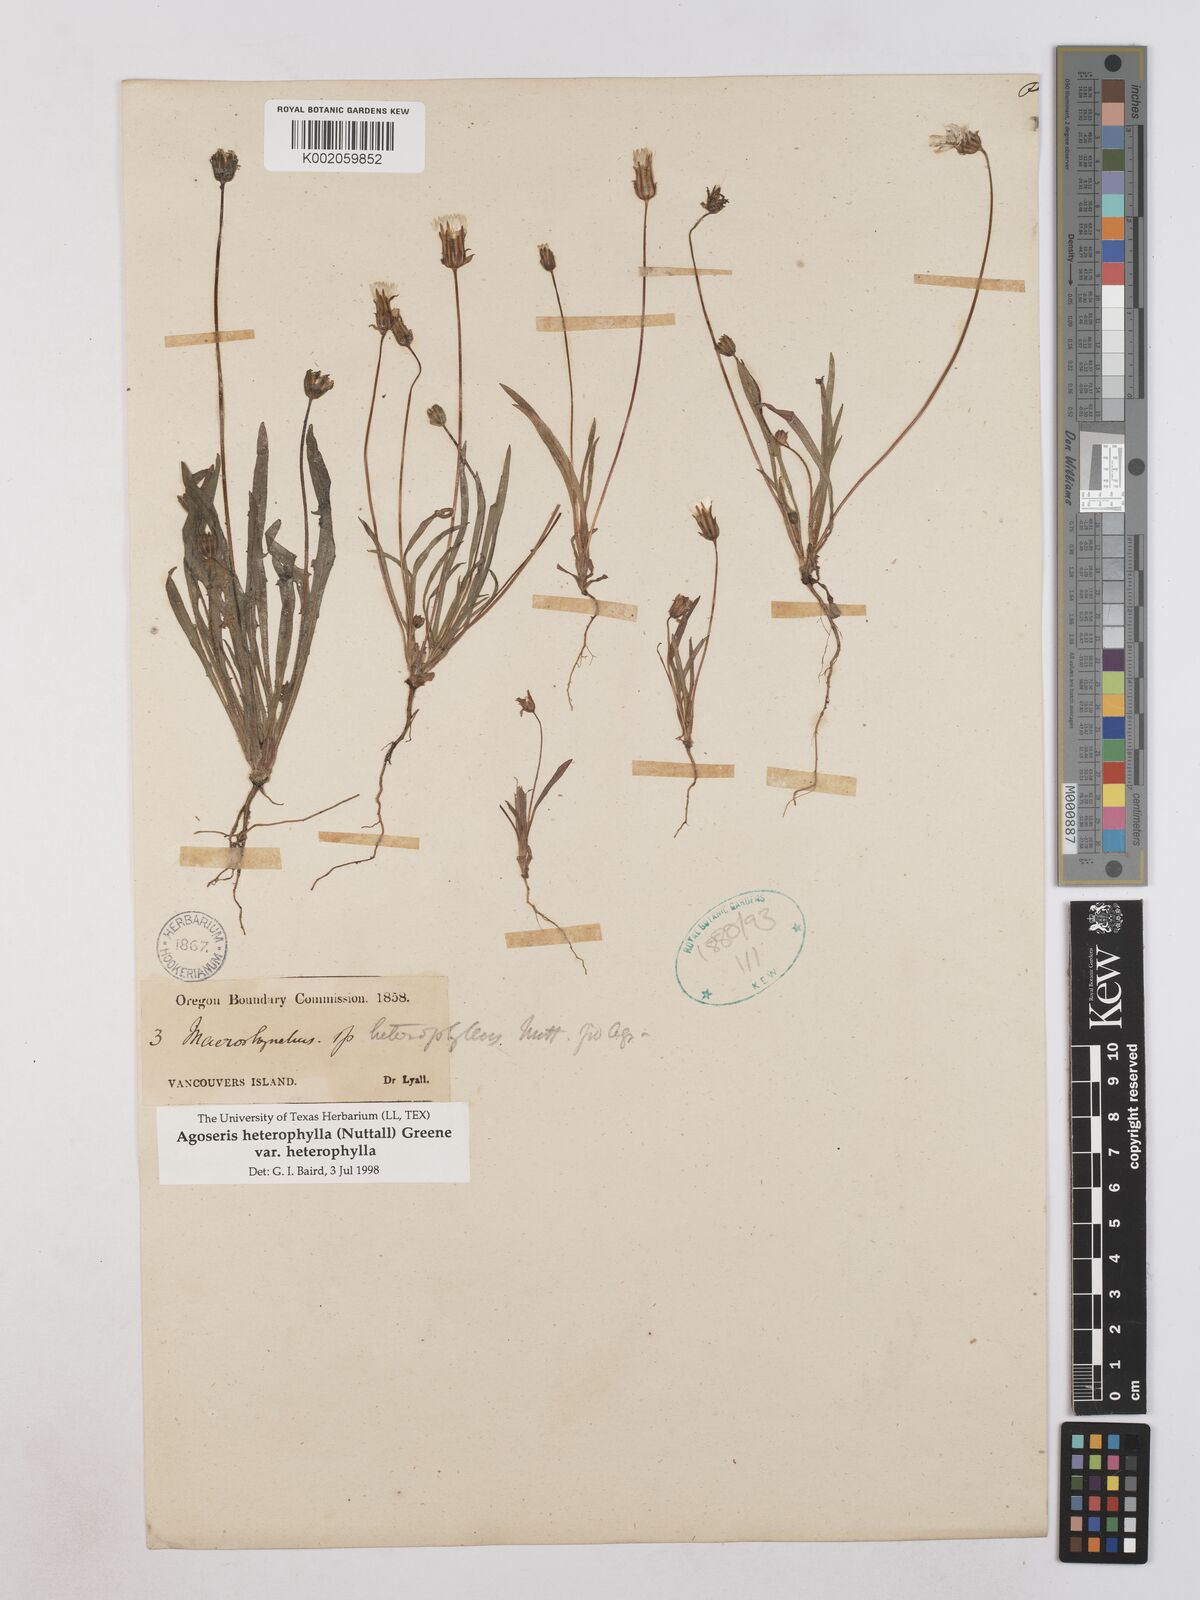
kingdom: Plantae
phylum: Tracheophyta
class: Magnoliopsida
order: Asterales
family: Asteraceae
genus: Agoseris
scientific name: Agoseris heterophylla
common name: Annual agoseris
